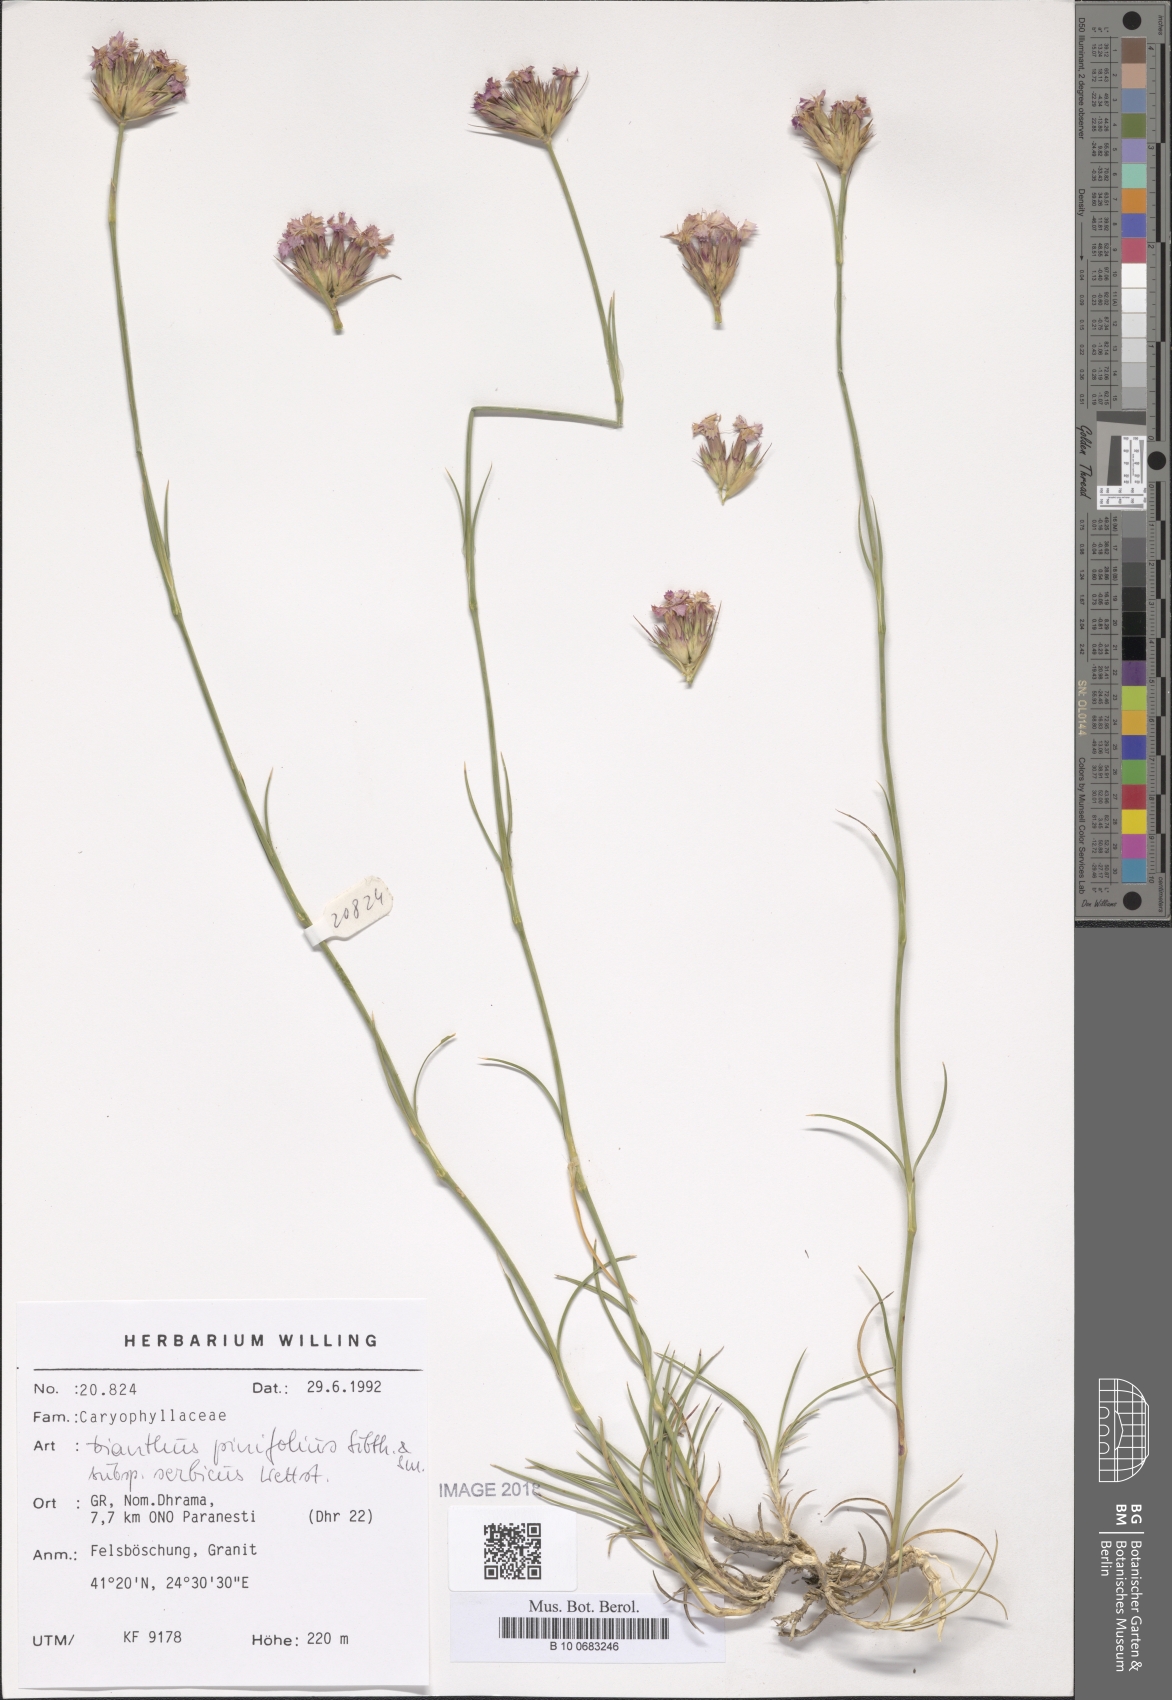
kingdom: Plantae
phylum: Tracheophyta
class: Magnoliopsida
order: Caryophyllales
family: Caryophyllaceae
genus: Dianthus
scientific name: Dianthus pinifolius
